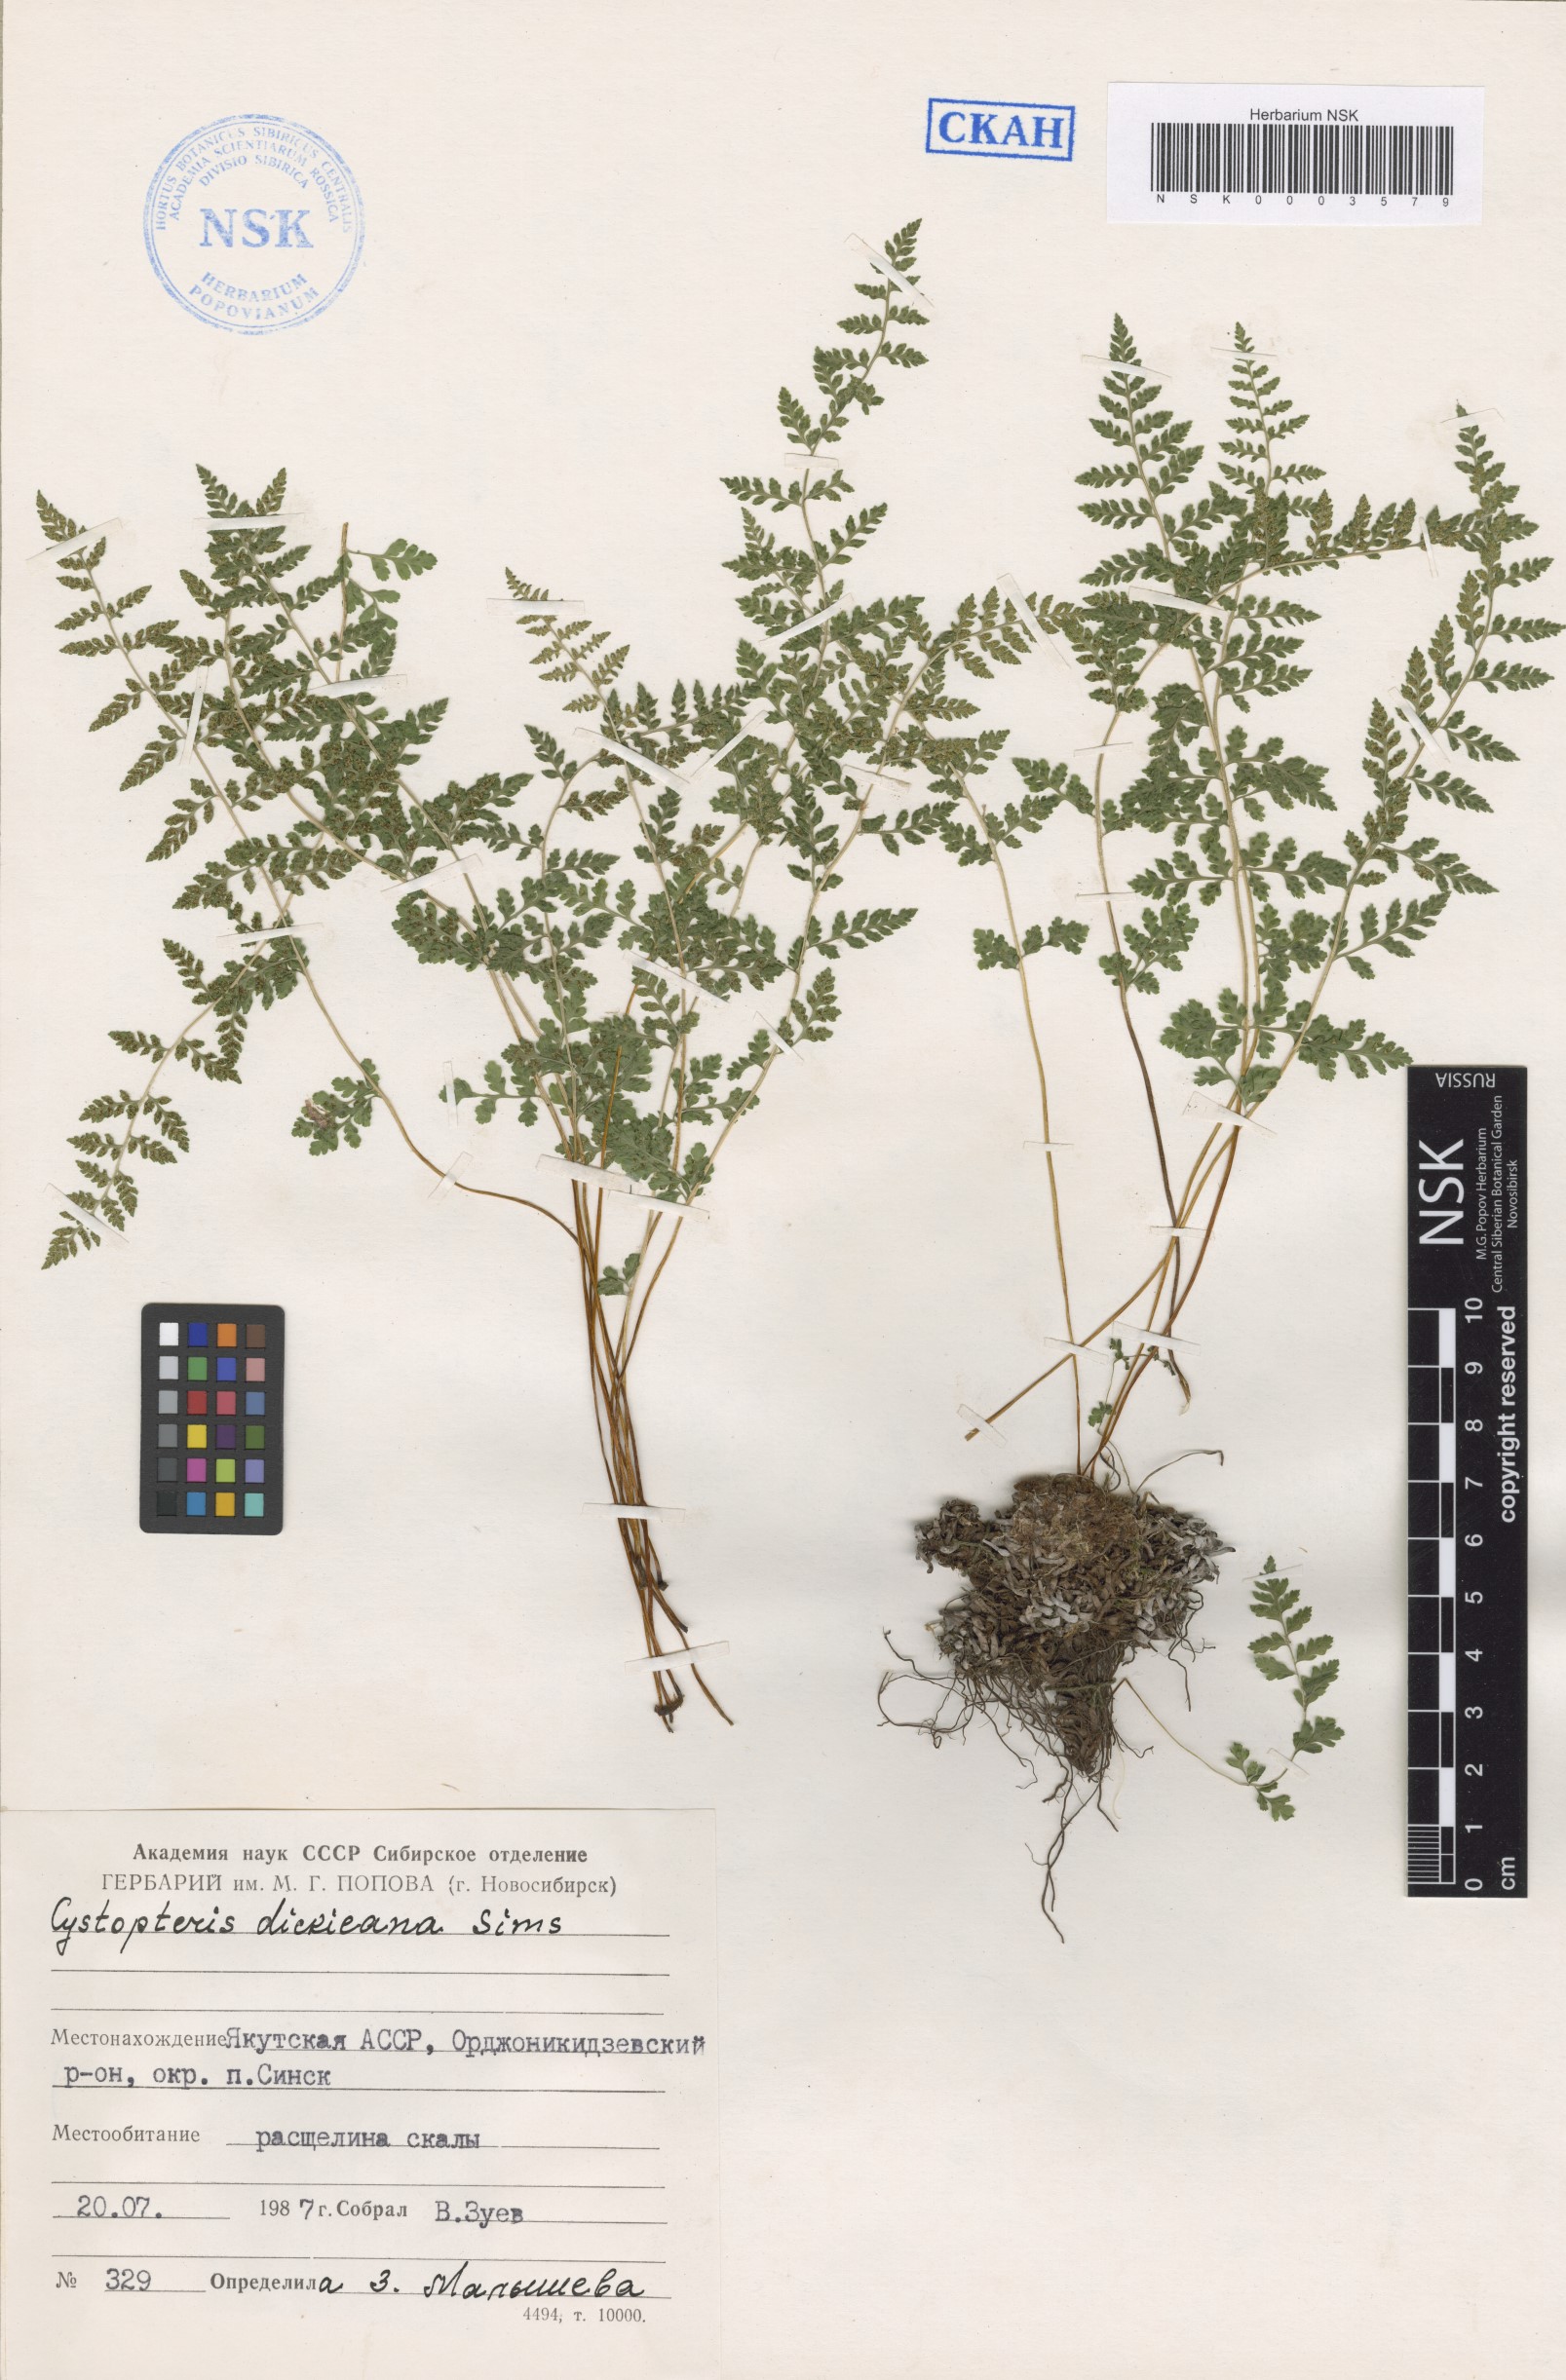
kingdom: Plantae
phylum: Tracheophyta
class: Polypodiopsida
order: Polypodiales
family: Cystopteridaceae
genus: Cystopteris
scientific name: Cystopteris dickieana
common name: Dickie's bladder-fern
